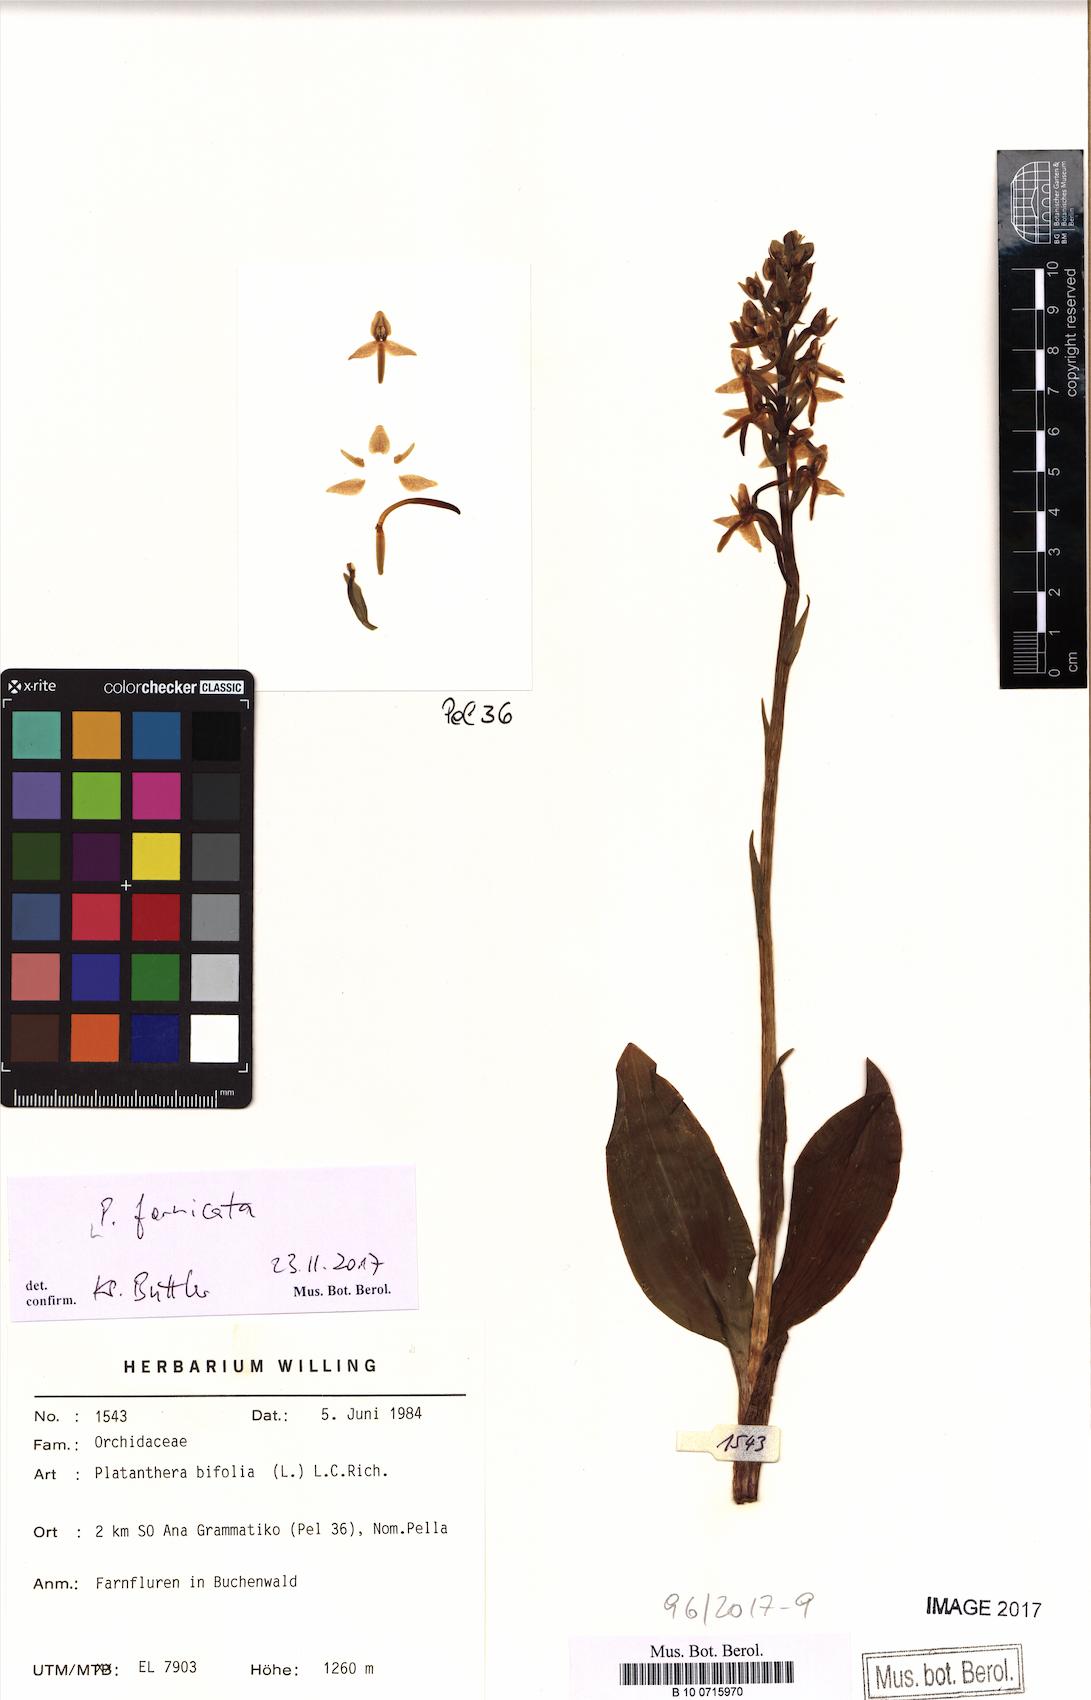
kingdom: Plantae
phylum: Tracheophyta
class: Liliopsida
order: Asparagales
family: Orchidaceae
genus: Platanthera
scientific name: Platanthera bifolia
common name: Lesser butterfly-orchid
